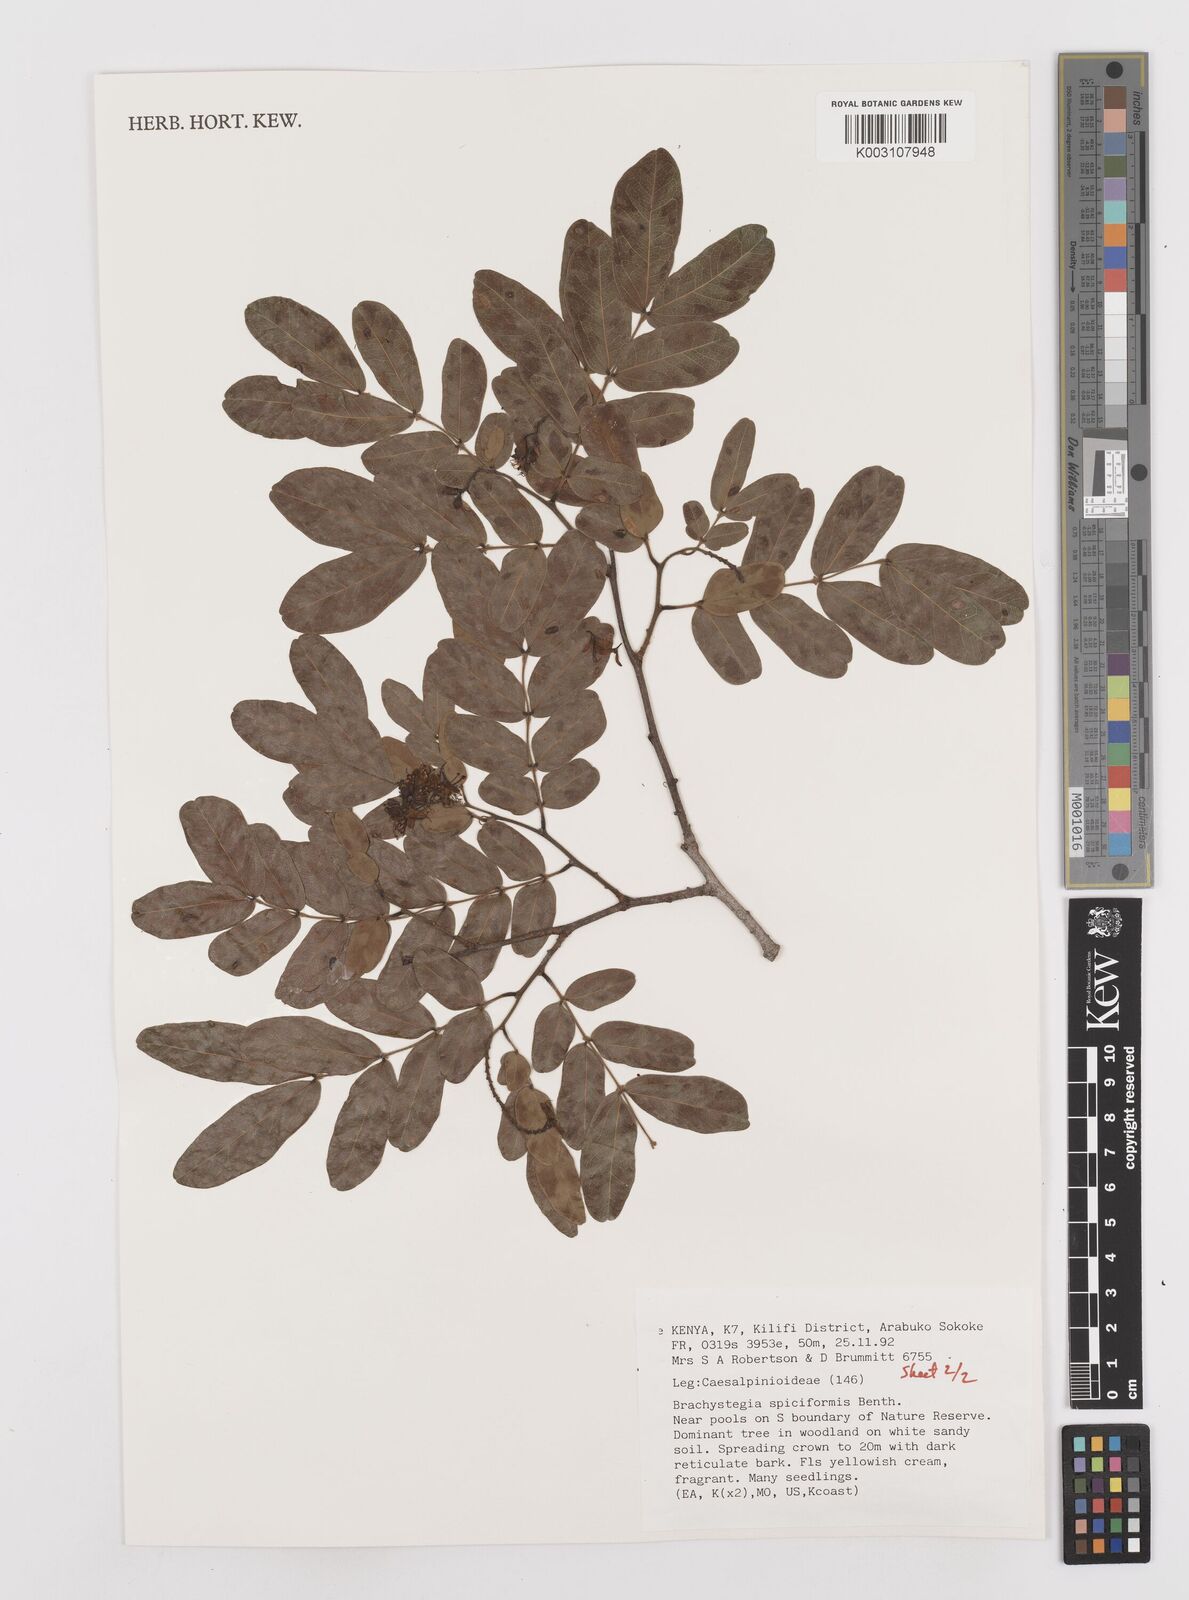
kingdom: Plantae
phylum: Tracheophyta
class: Magnoliopsida
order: Fabales
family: Fabaceae
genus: Brachystegia
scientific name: Brachystegia spiciformis
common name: Zebrawood
